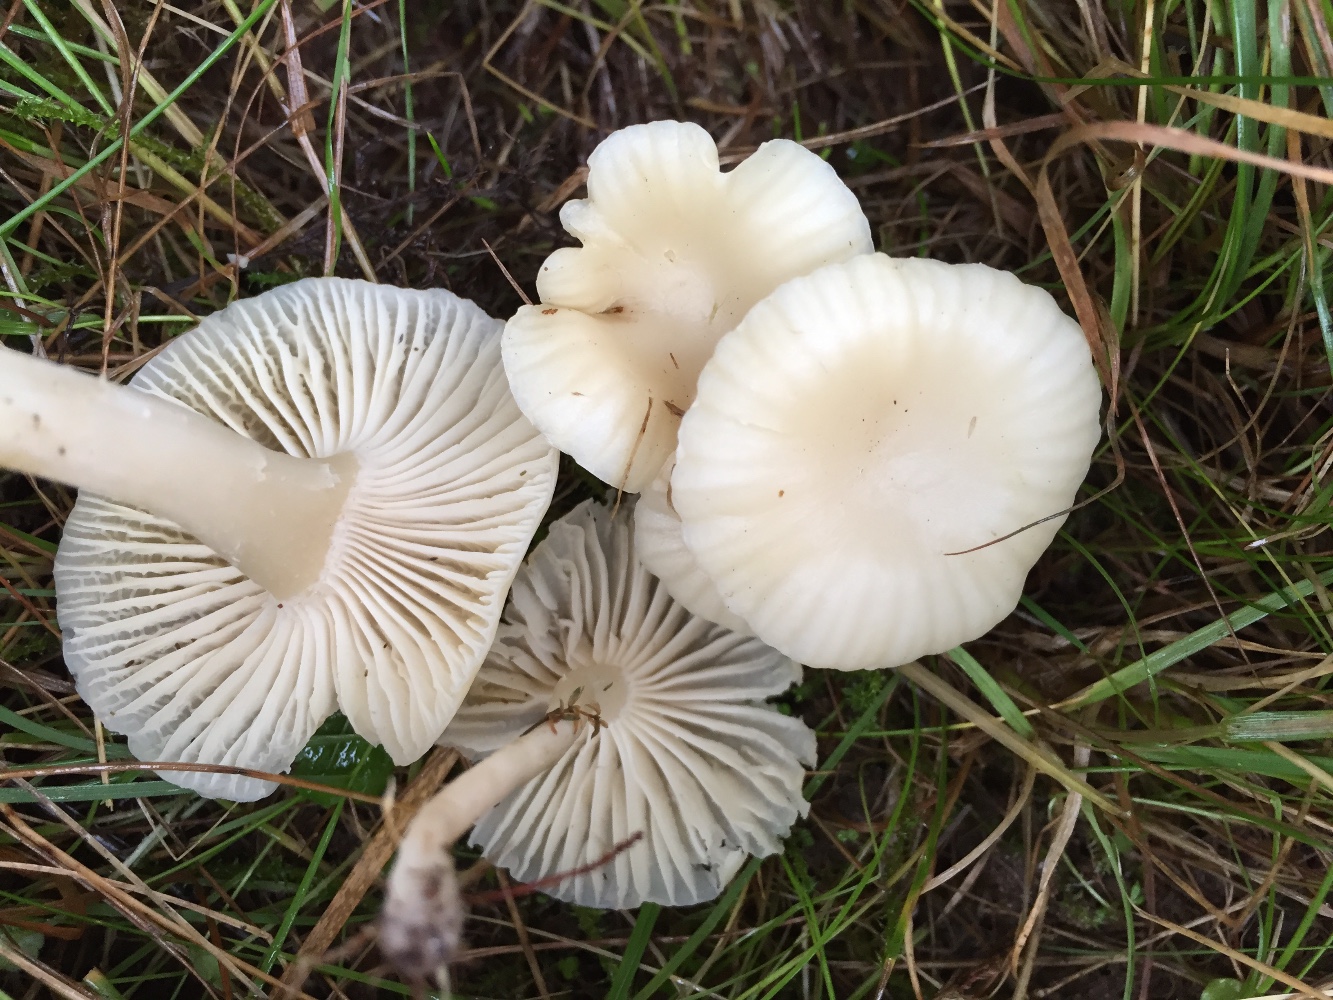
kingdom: Fungi
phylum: Basidiomycota
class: Agaricomycetes
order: Agaricales
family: Hygrophoraceae
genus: Cuphophyllus
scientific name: Cuphophyllus russocoriaceus
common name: ruslæder-vokshat
